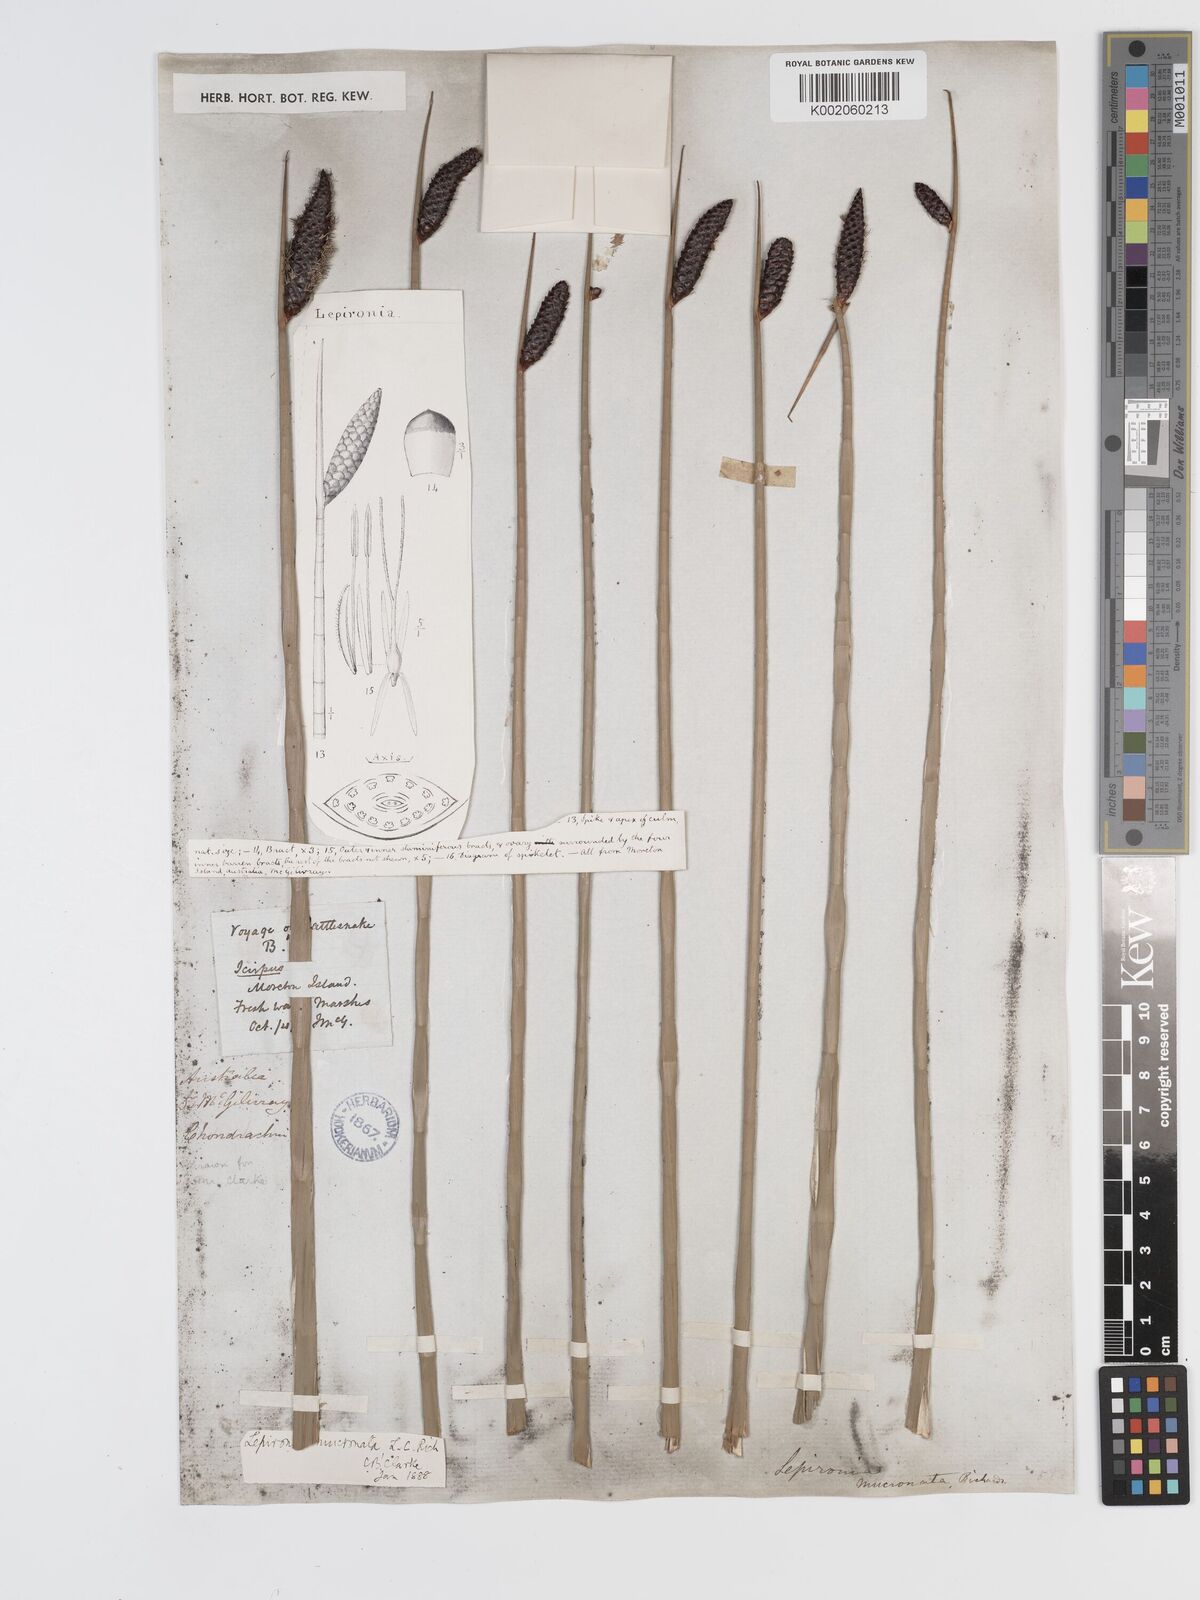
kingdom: Plantae
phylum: Tracheophyta
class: Liliopsida
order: Poales
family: Cyperaceae
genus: Lepironia
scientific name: Lepironia articulata
